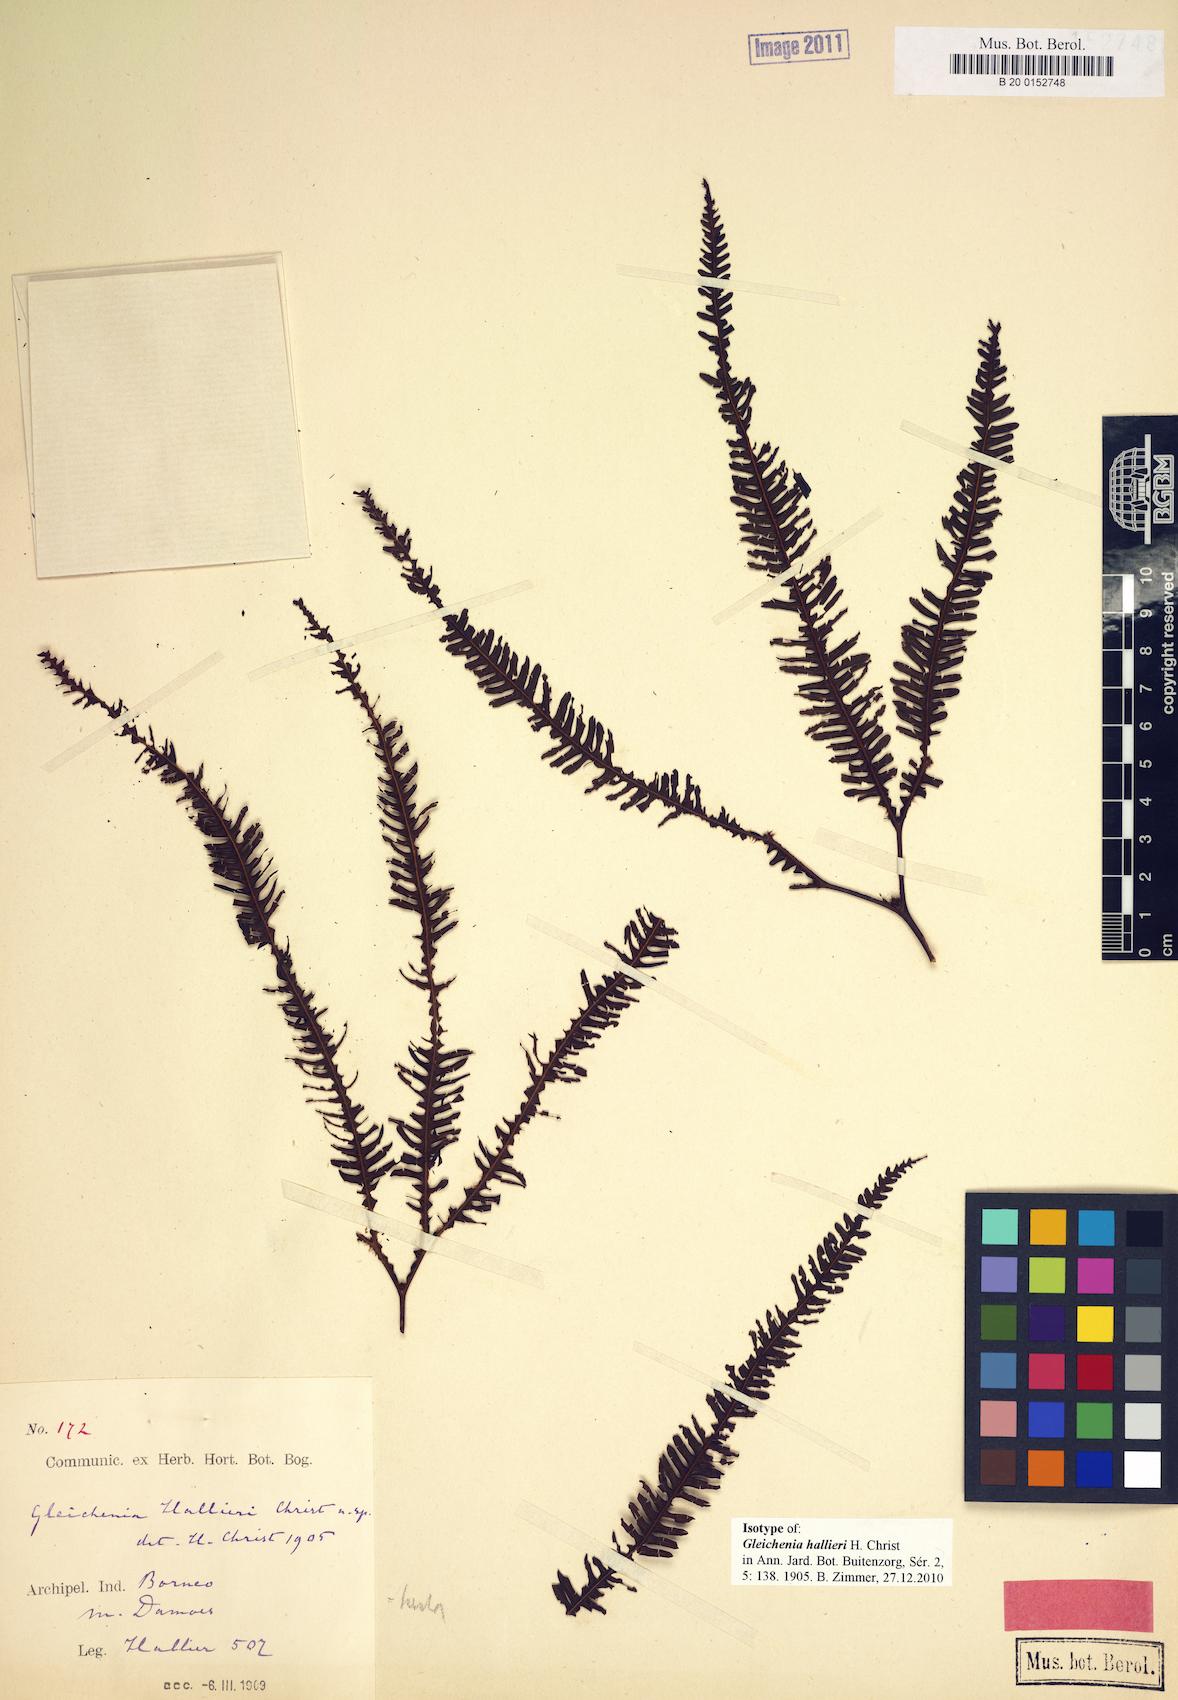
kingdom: Plantae
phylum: Tracheophyta
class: Polypodiopsida
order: Gleicheniales
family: Gleicheniaceae
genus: Sticherus
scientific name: Sticherus hirtus
